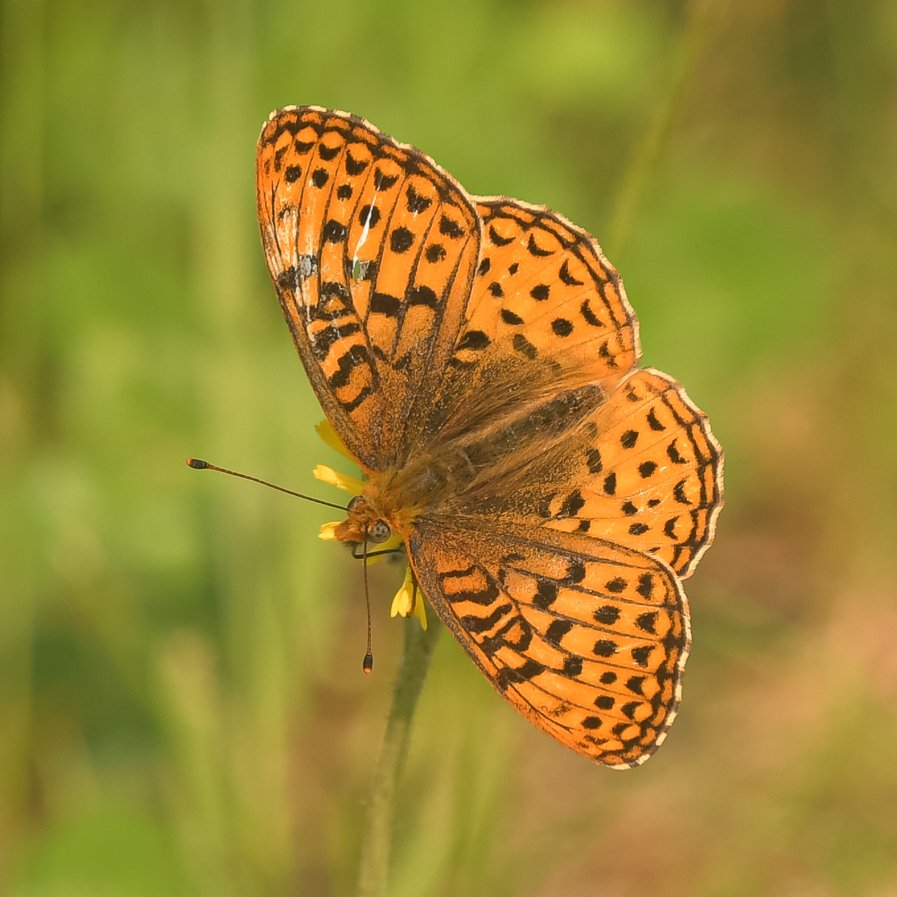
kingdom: Animalia
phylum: Arthropoda
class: Insecta
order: Lepidoptera
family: Nymphalidae
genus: Speyeria
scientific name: Speyeria atlantis
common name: Northwestern Fritillary
